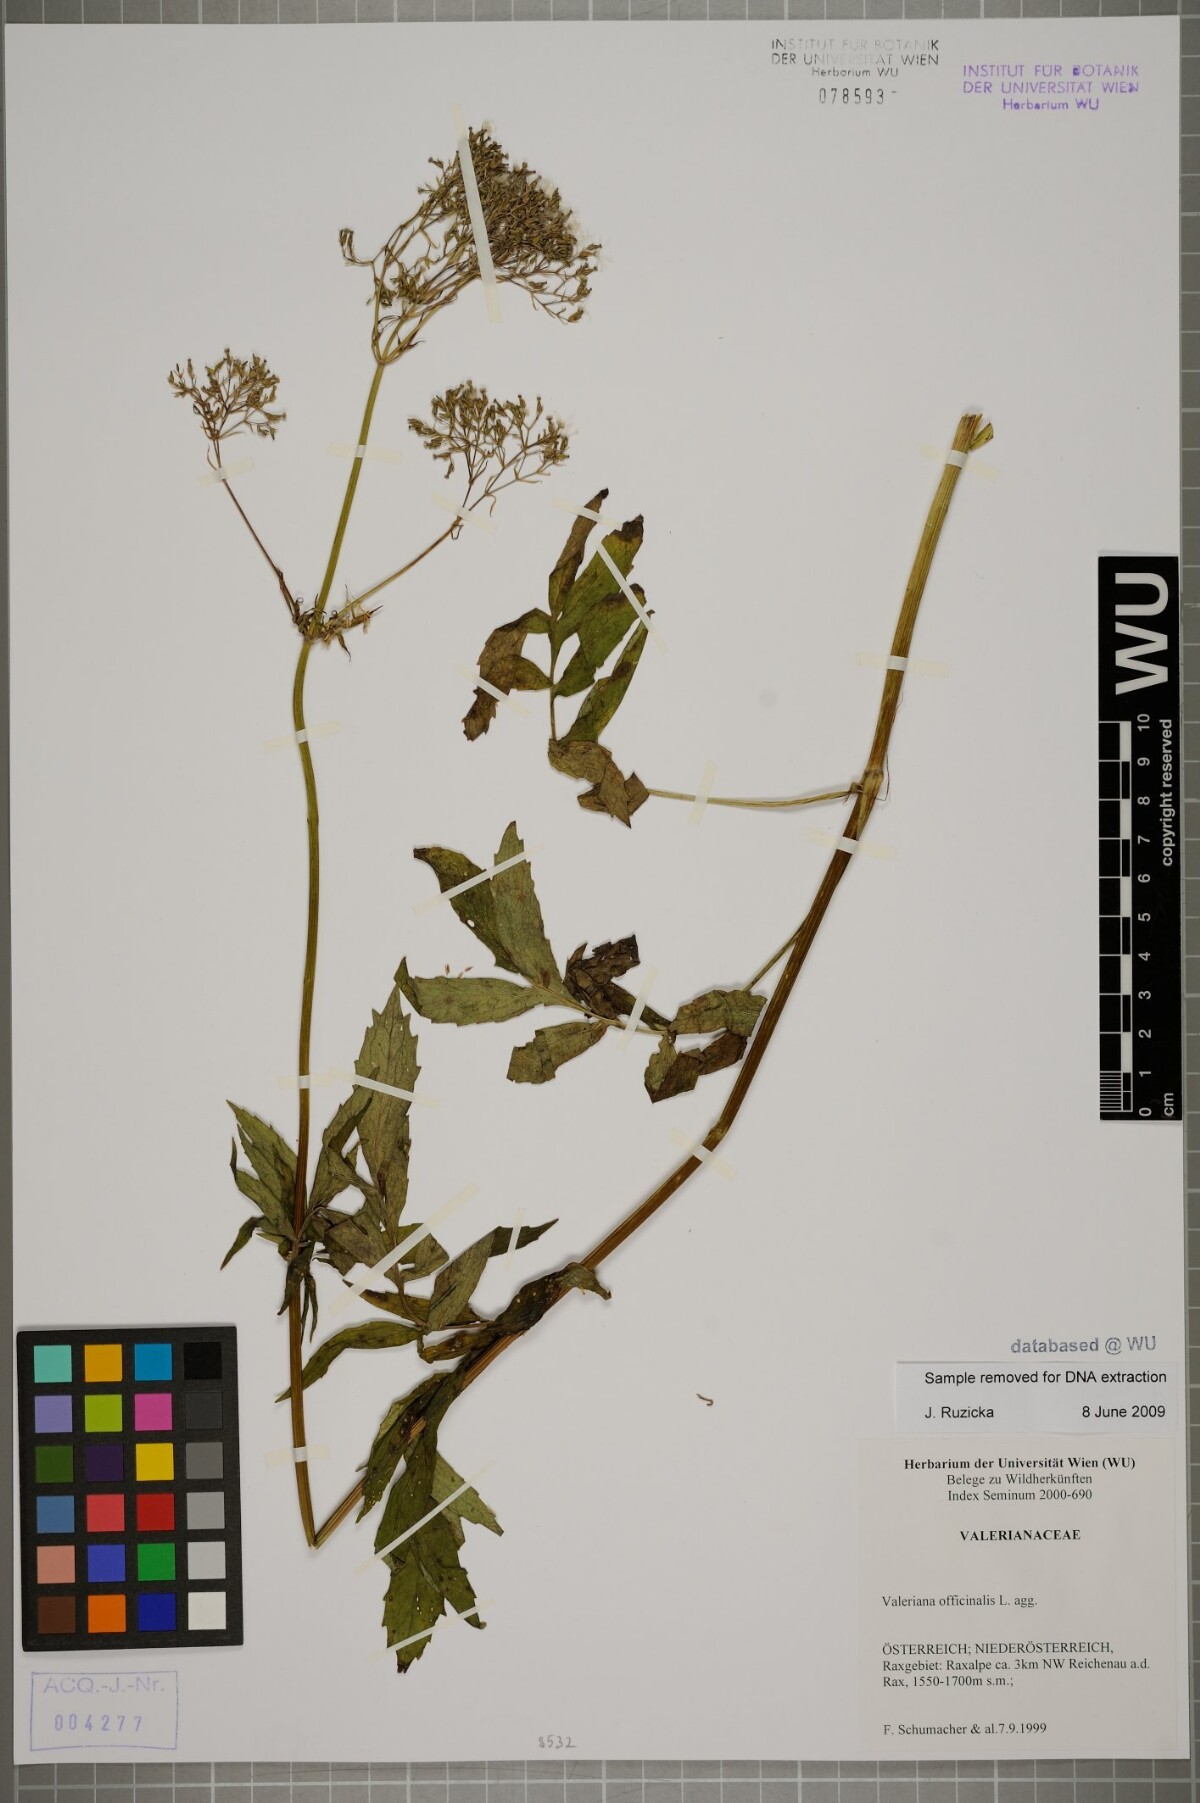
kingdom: Plantae
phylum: Tracheophyta
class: Magnoliopsida
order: Dipsacales
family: Caprifoliaceae
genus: Valeriana
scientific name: Valeriana officinalis
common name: Common valerian
